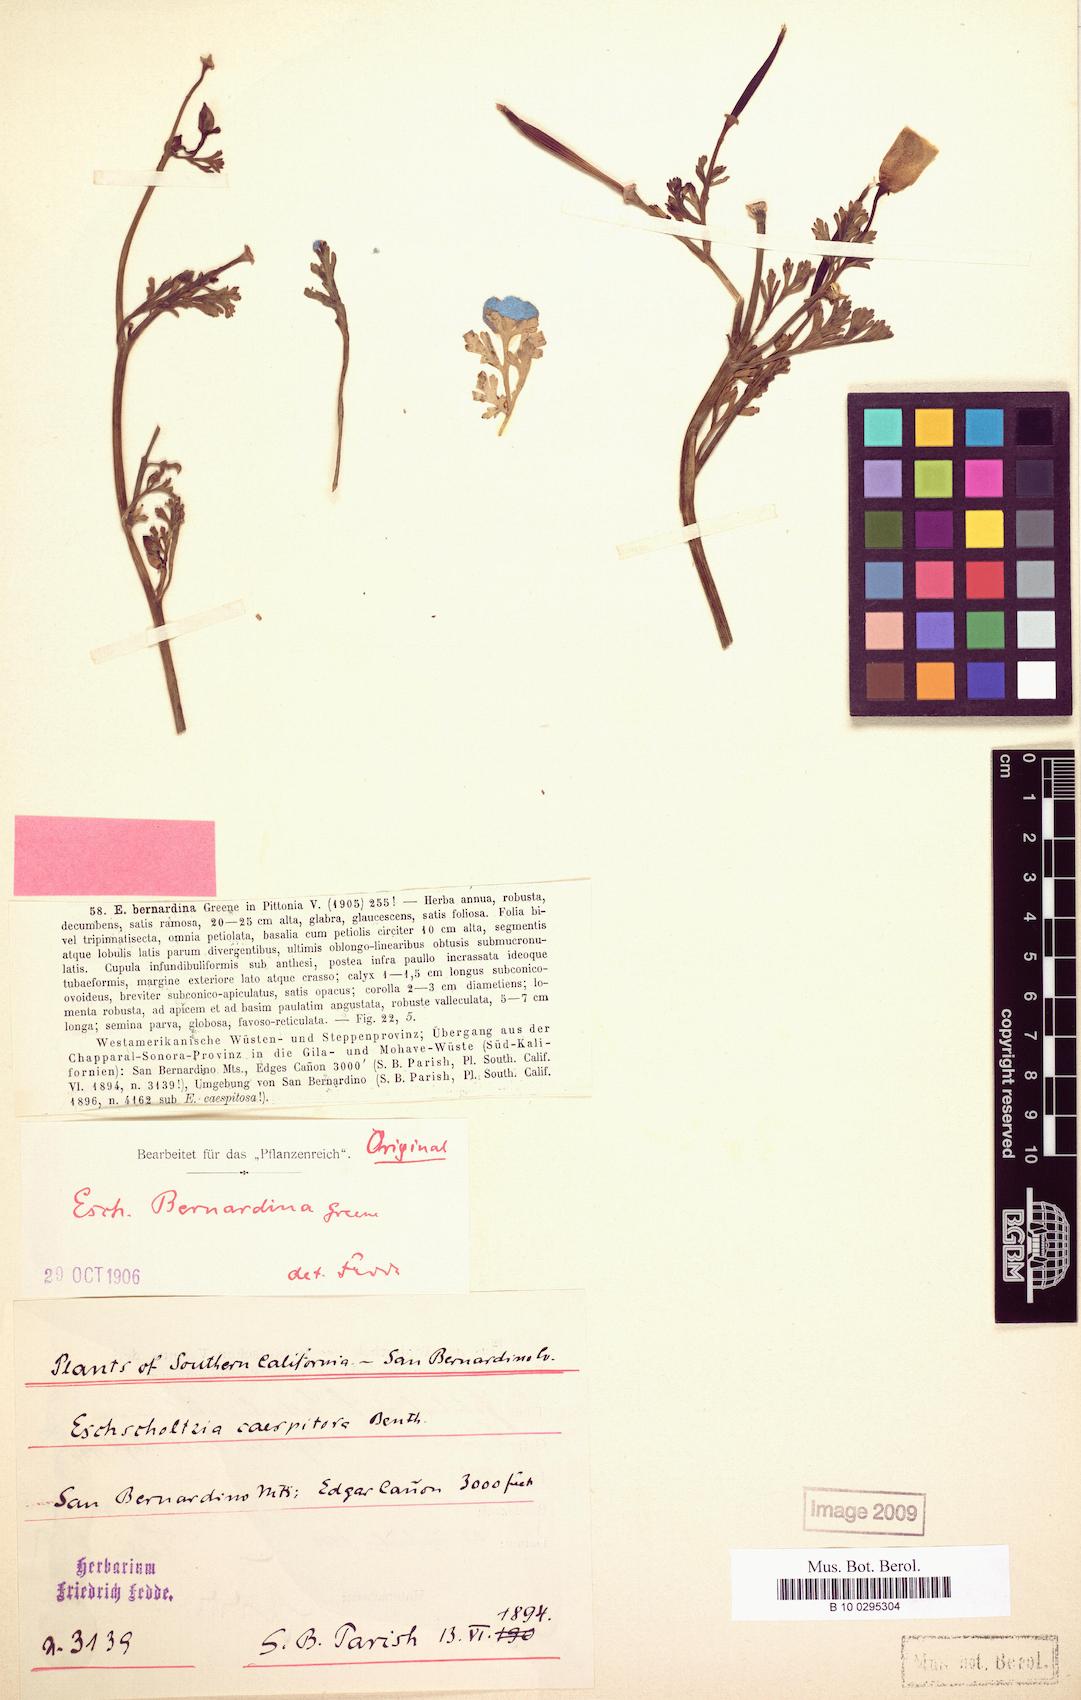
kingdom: Plantae
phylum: Tracheophyta
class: Magnoliopsida
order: Ranunculales
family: Papaveraceae
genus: Eschscholzia
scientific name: Eschscholzia californica
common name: California poppy
